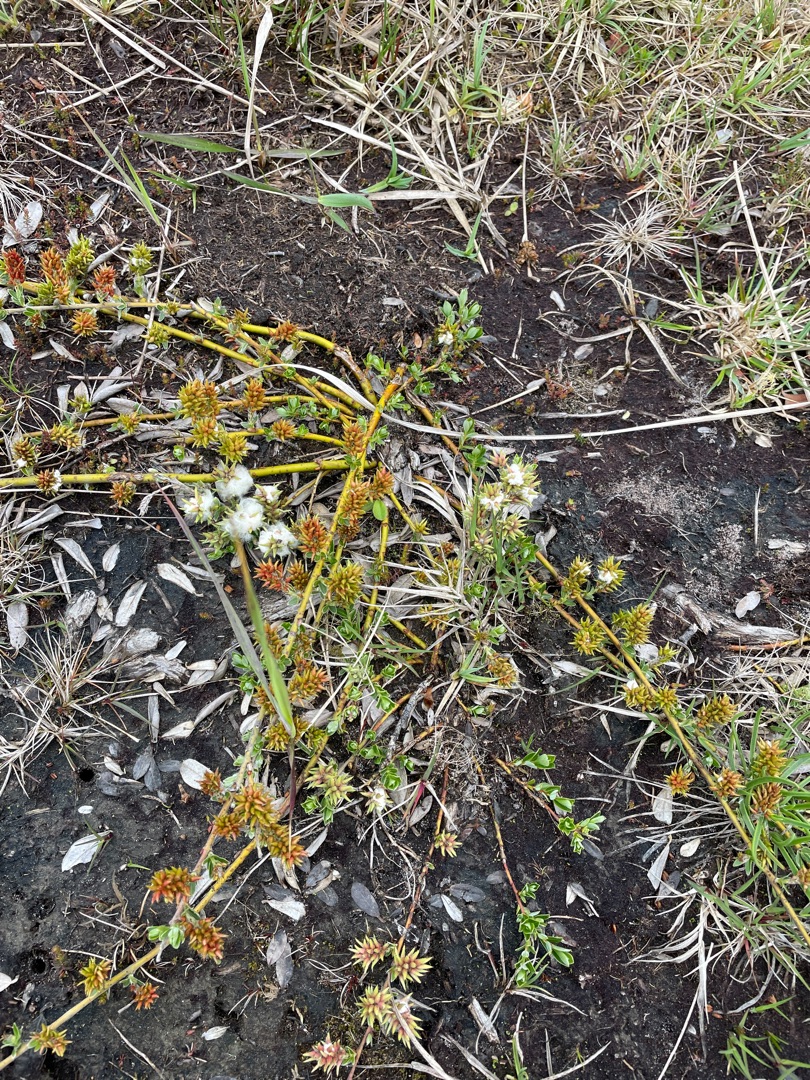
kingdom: Plantae
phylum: Tracheophyta
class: Magnoliopsida
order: Malpighiales
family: Salicaceae
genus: Salix
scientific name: Salix repens
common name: Krybende pil
